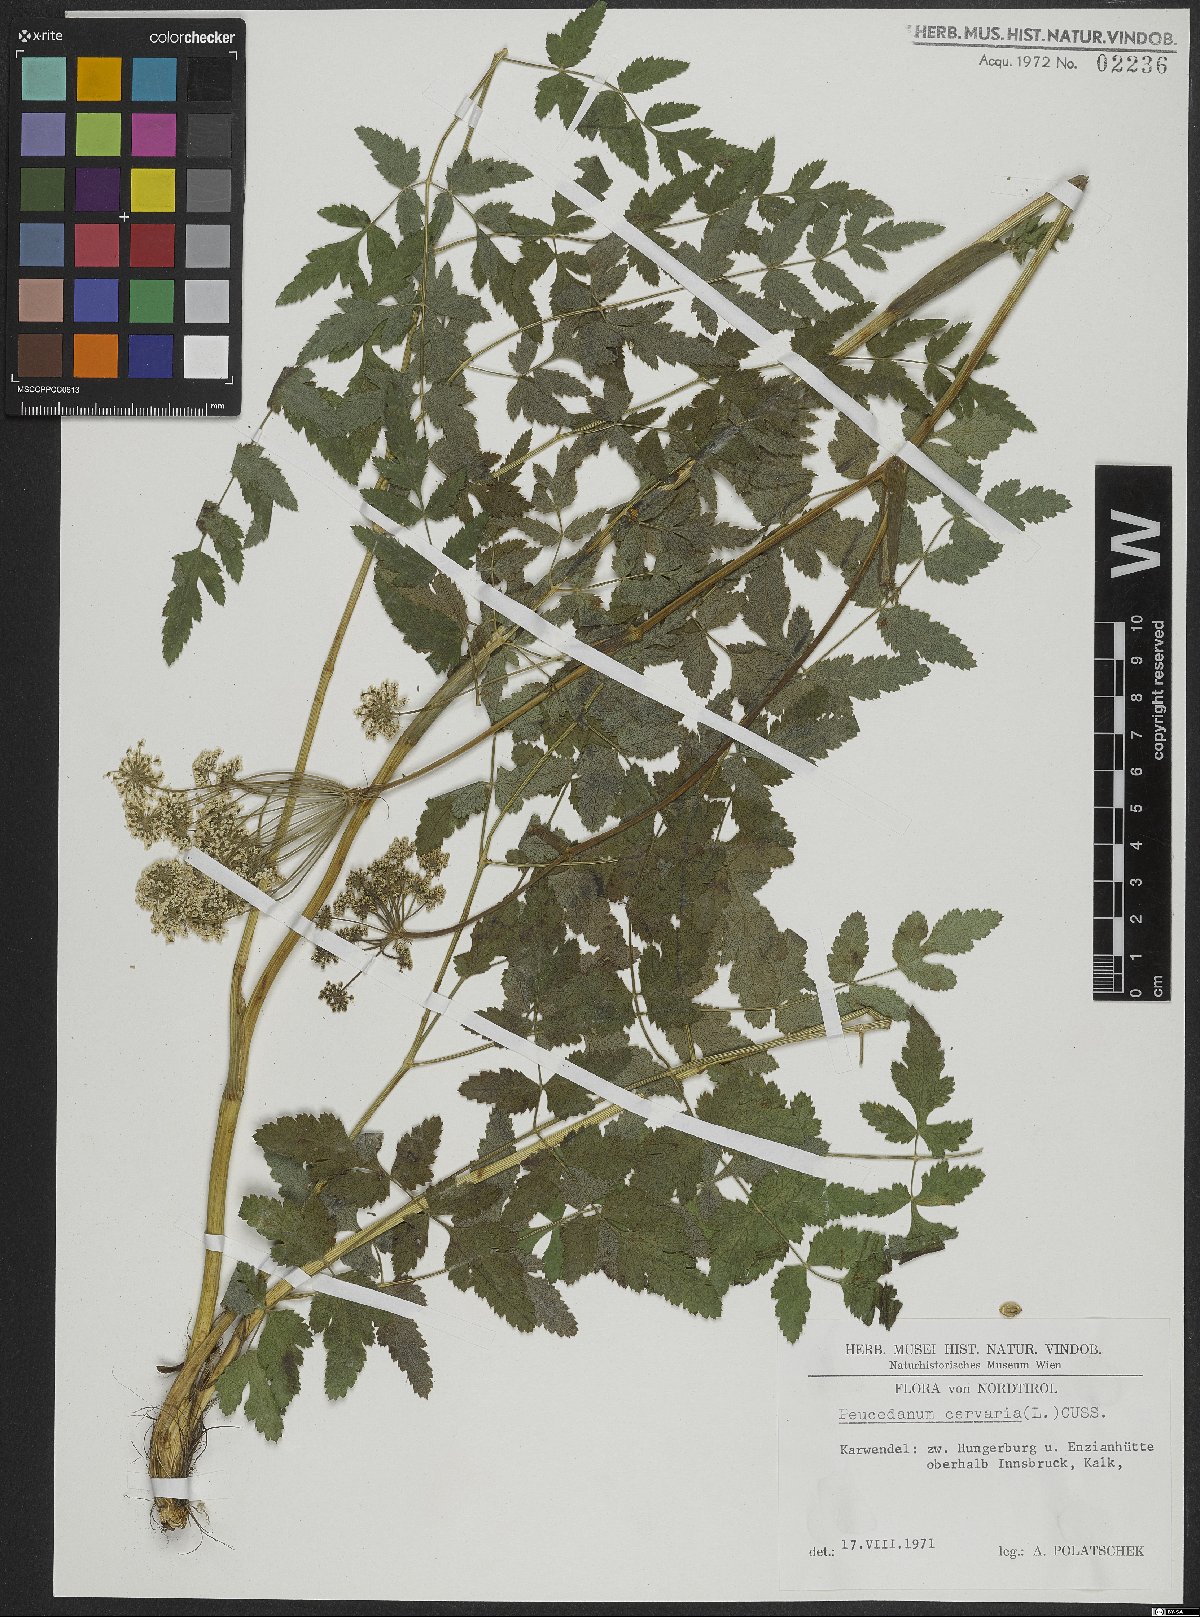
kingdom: Plantae
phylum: Tracheophyta
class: Magnoliopsida
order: Apiales
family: Apiaceae
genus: Cervaria
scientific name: Cervaria rivini
